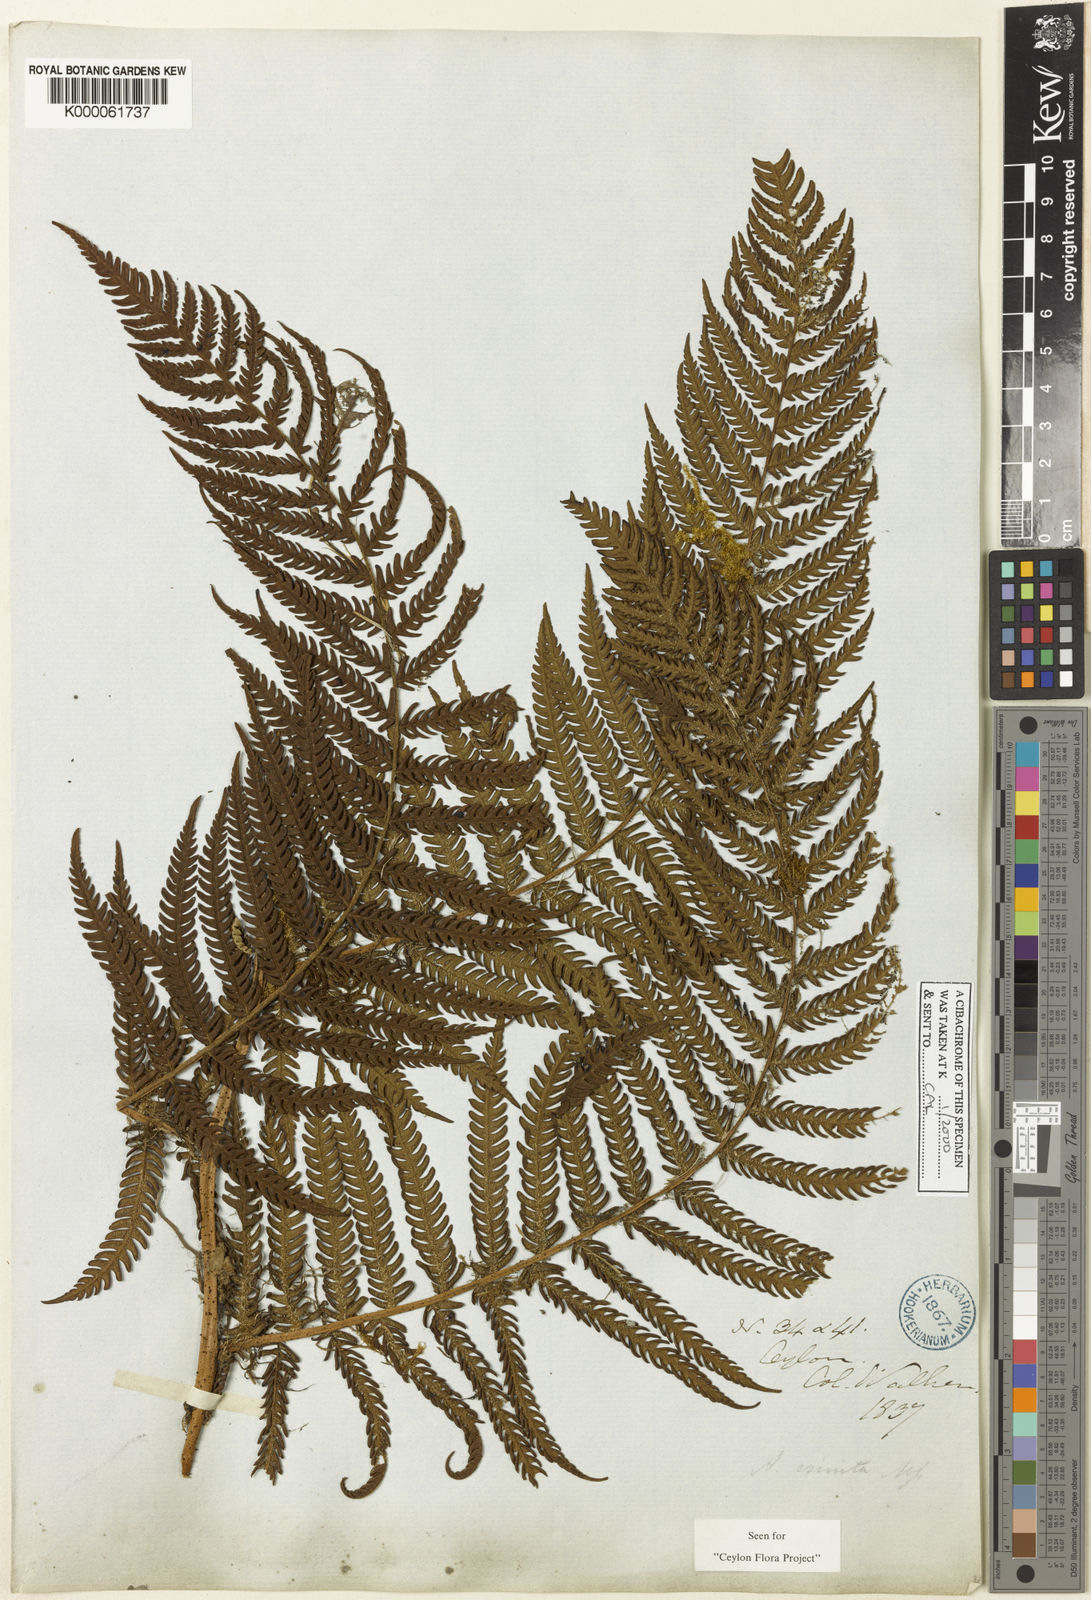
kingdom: Plantae
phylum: Tracheophyta
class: Polypodiopsida
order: Cyatheales
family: Cyatheaceae
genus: Alsophila
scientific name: Alsophila crinita
